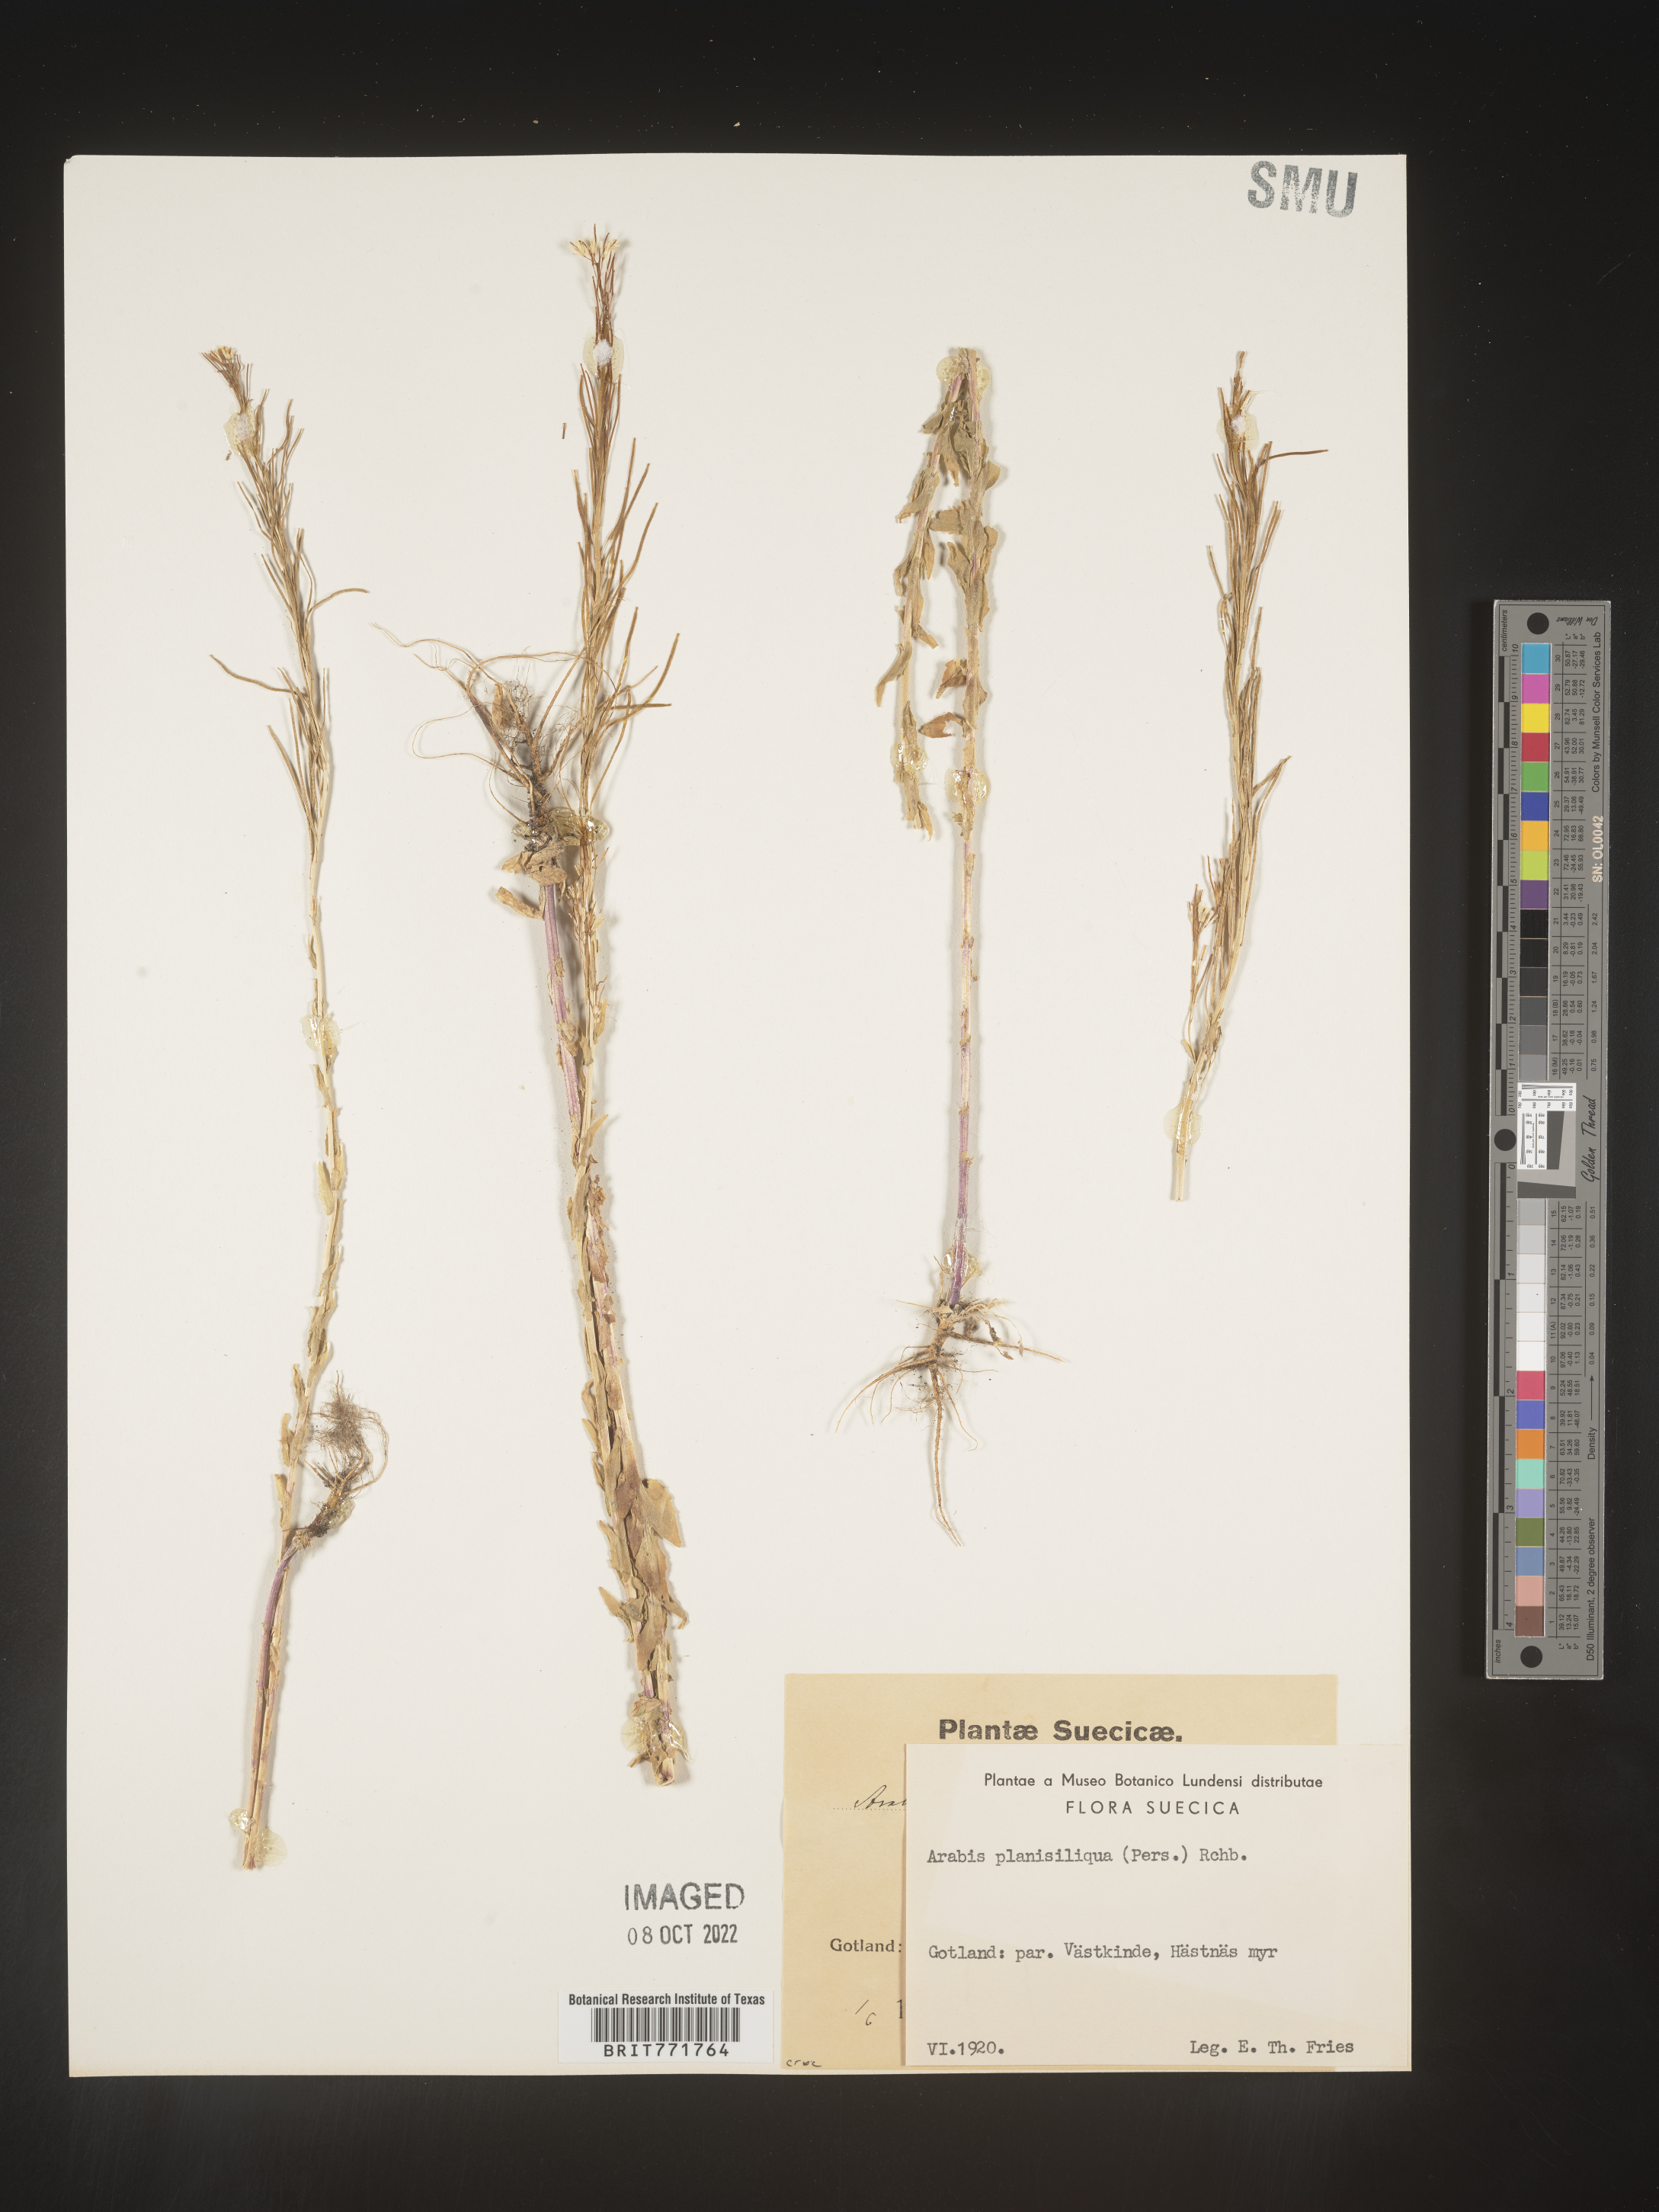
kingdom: Plantae
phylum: Tracheophyta
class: Magnoliopsida
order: Brassicales
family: Brassicaceae
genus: Arabis
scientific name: Arabis
